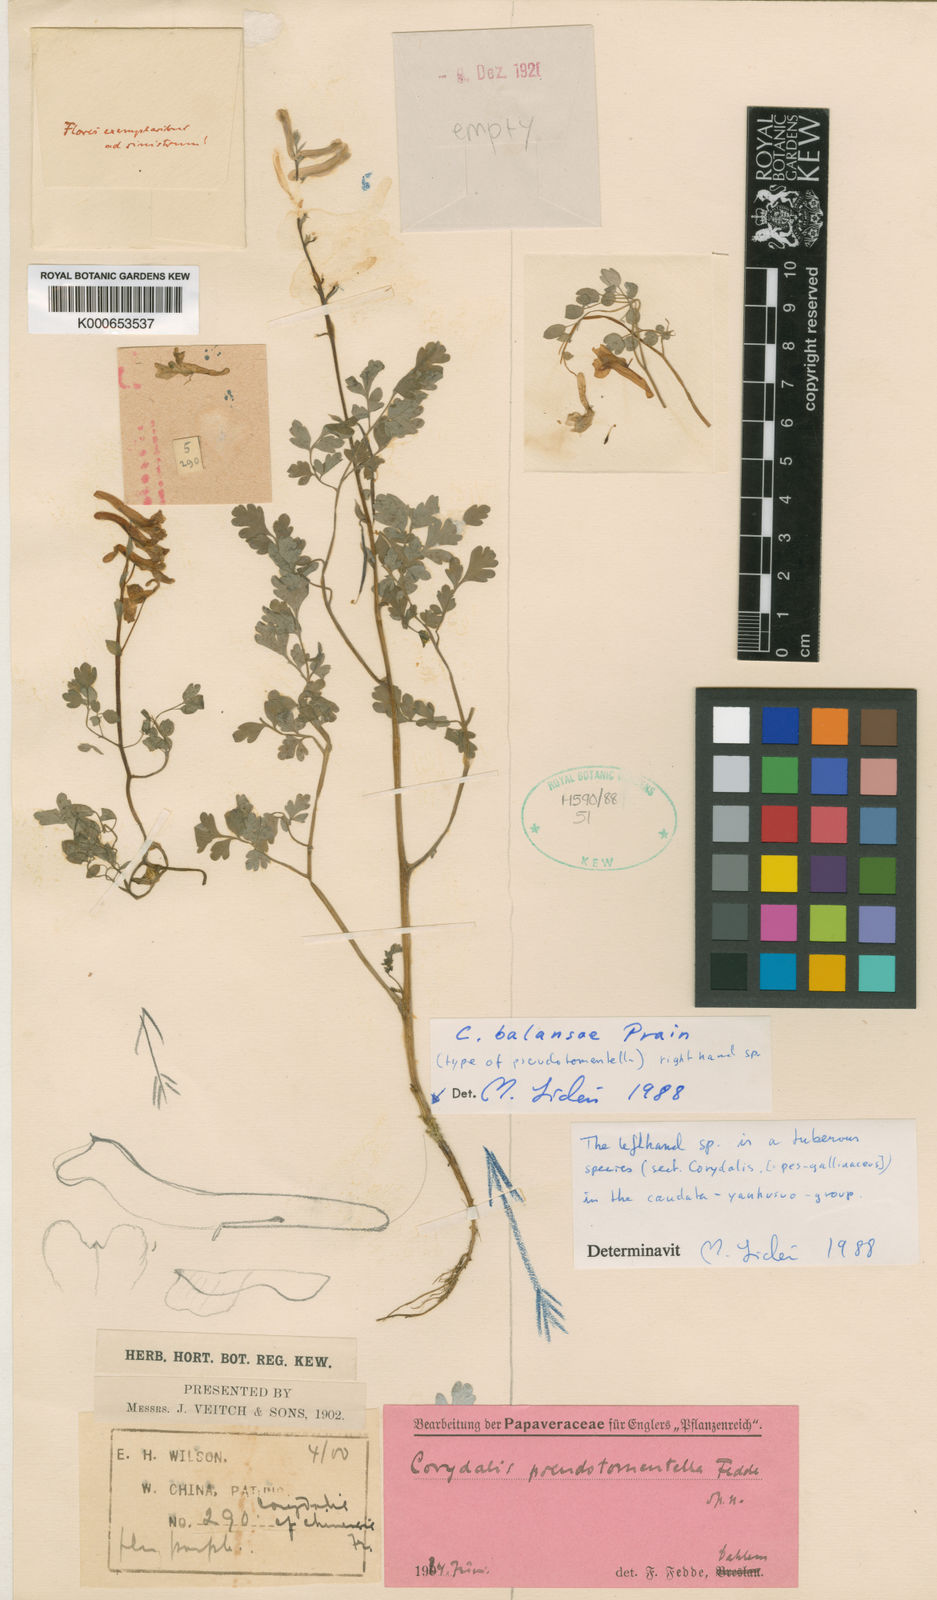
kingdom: Plantae
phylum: Tracheophyta
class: Magnoliopsida
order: Ranunculales
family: Papaveraceae
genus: Corydalis
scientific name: Corydalis balansae
